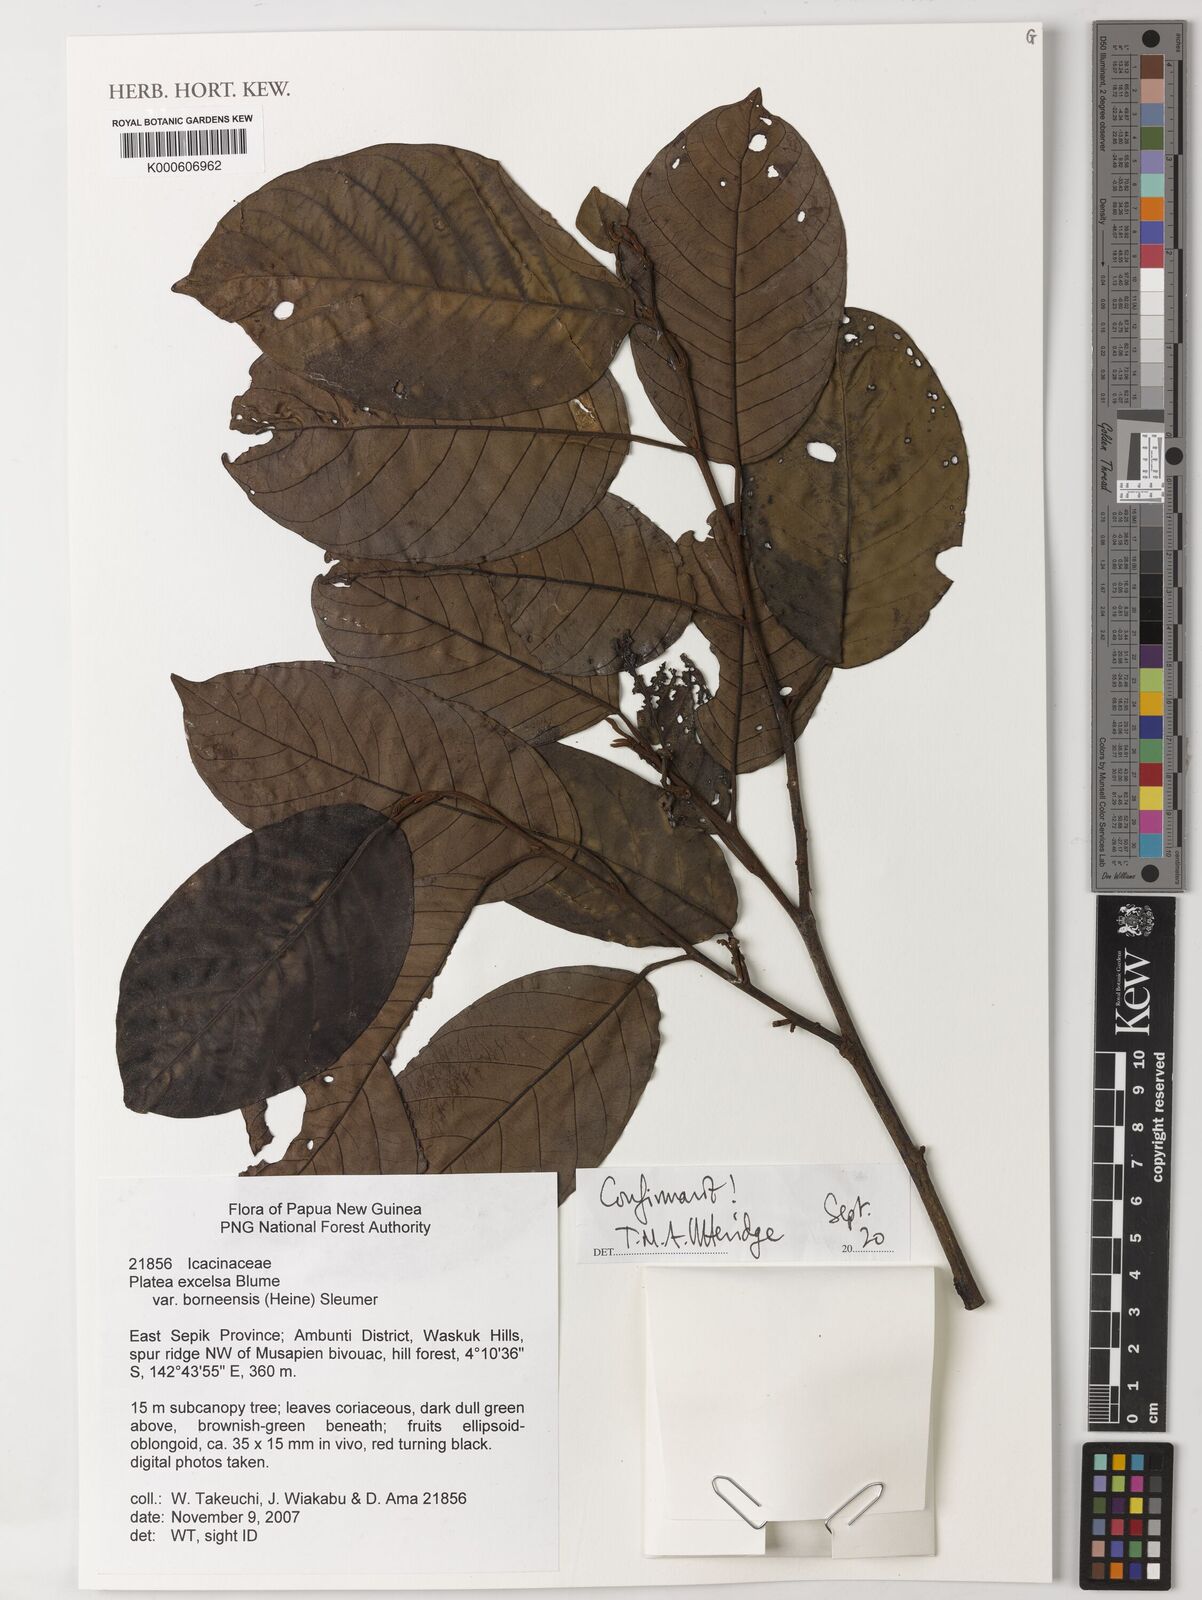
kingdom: Plantae
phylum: Tracheophyta
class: Magnoliopsida
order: Metteniusales
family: Metteniusaceae
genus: Platea
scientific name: Platea excelsa
